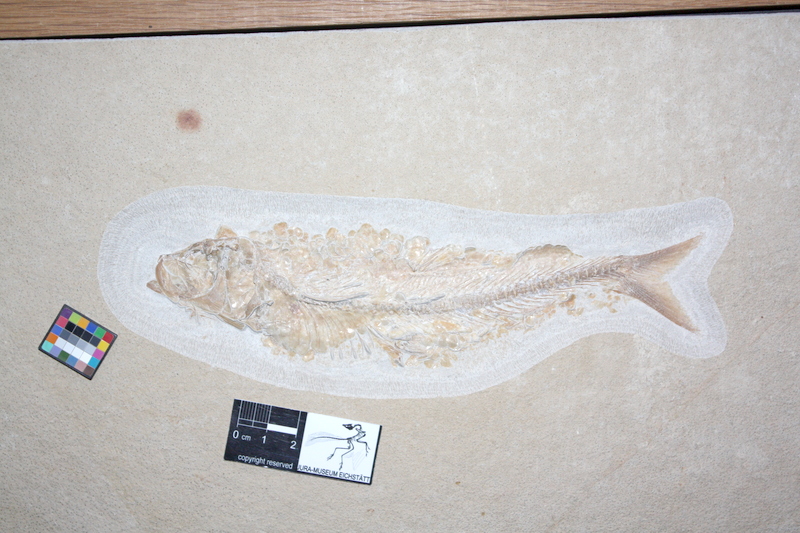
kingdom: Animalia
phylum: Chordata
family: Ascalaboidae
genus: Tharsis
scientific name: Tharsis elleri
